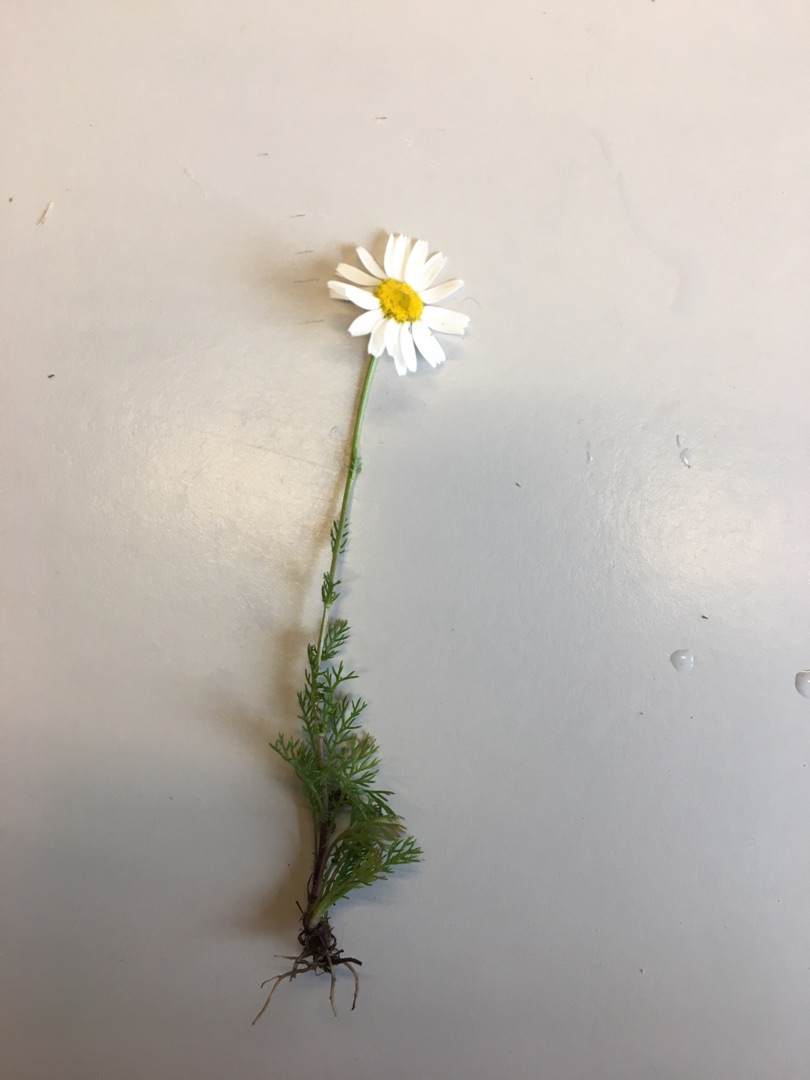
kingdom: Plantae
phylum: Tracheophyta
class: Magnoliopsida
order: Asterales
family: Asteraceae
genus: Tripleurospermum
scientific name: Tripleurospermum inodorum
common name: Lugtløs kamille
